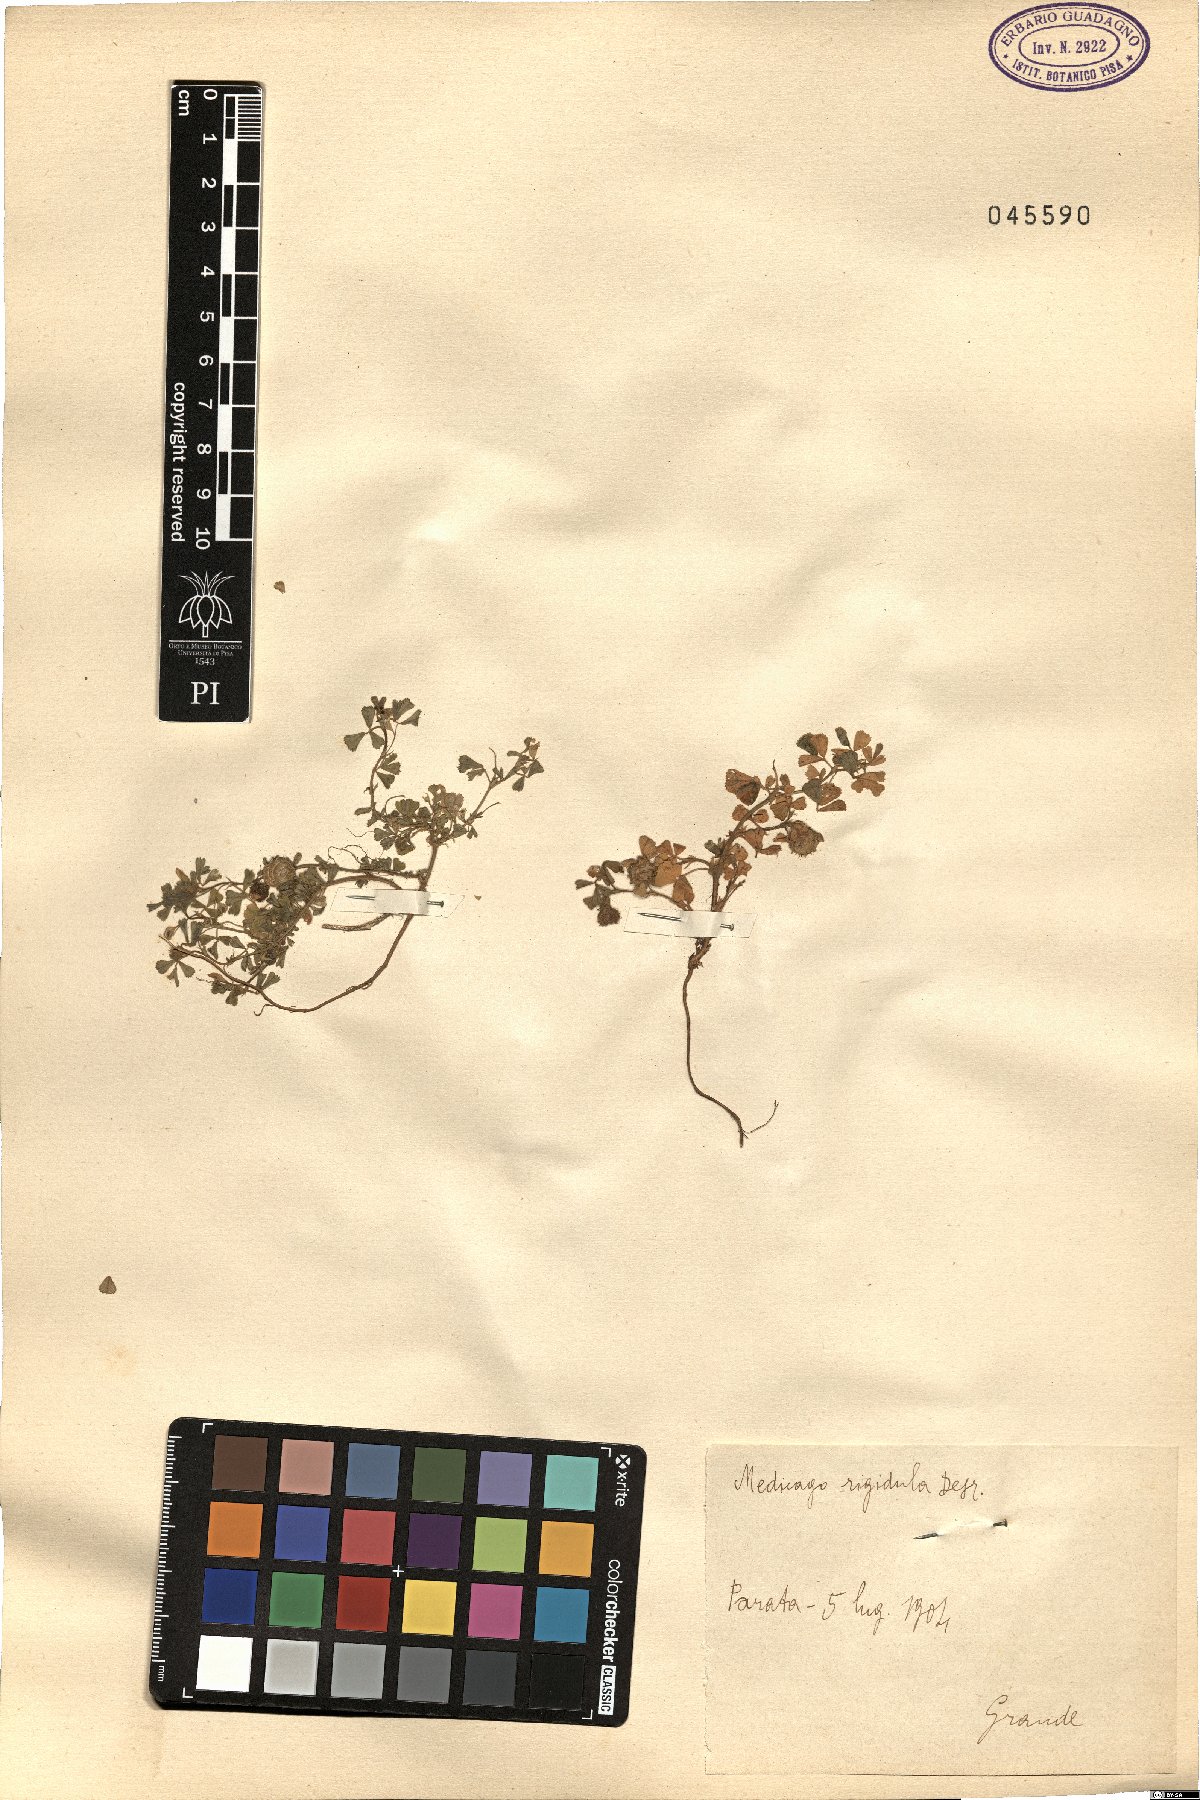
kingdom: Plantae
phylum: Tracheophyta
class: Magnoliopsida
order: Fabales
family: Fabaceae
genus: Medicago
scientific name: Medicago rigidula
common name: Tifton medic
